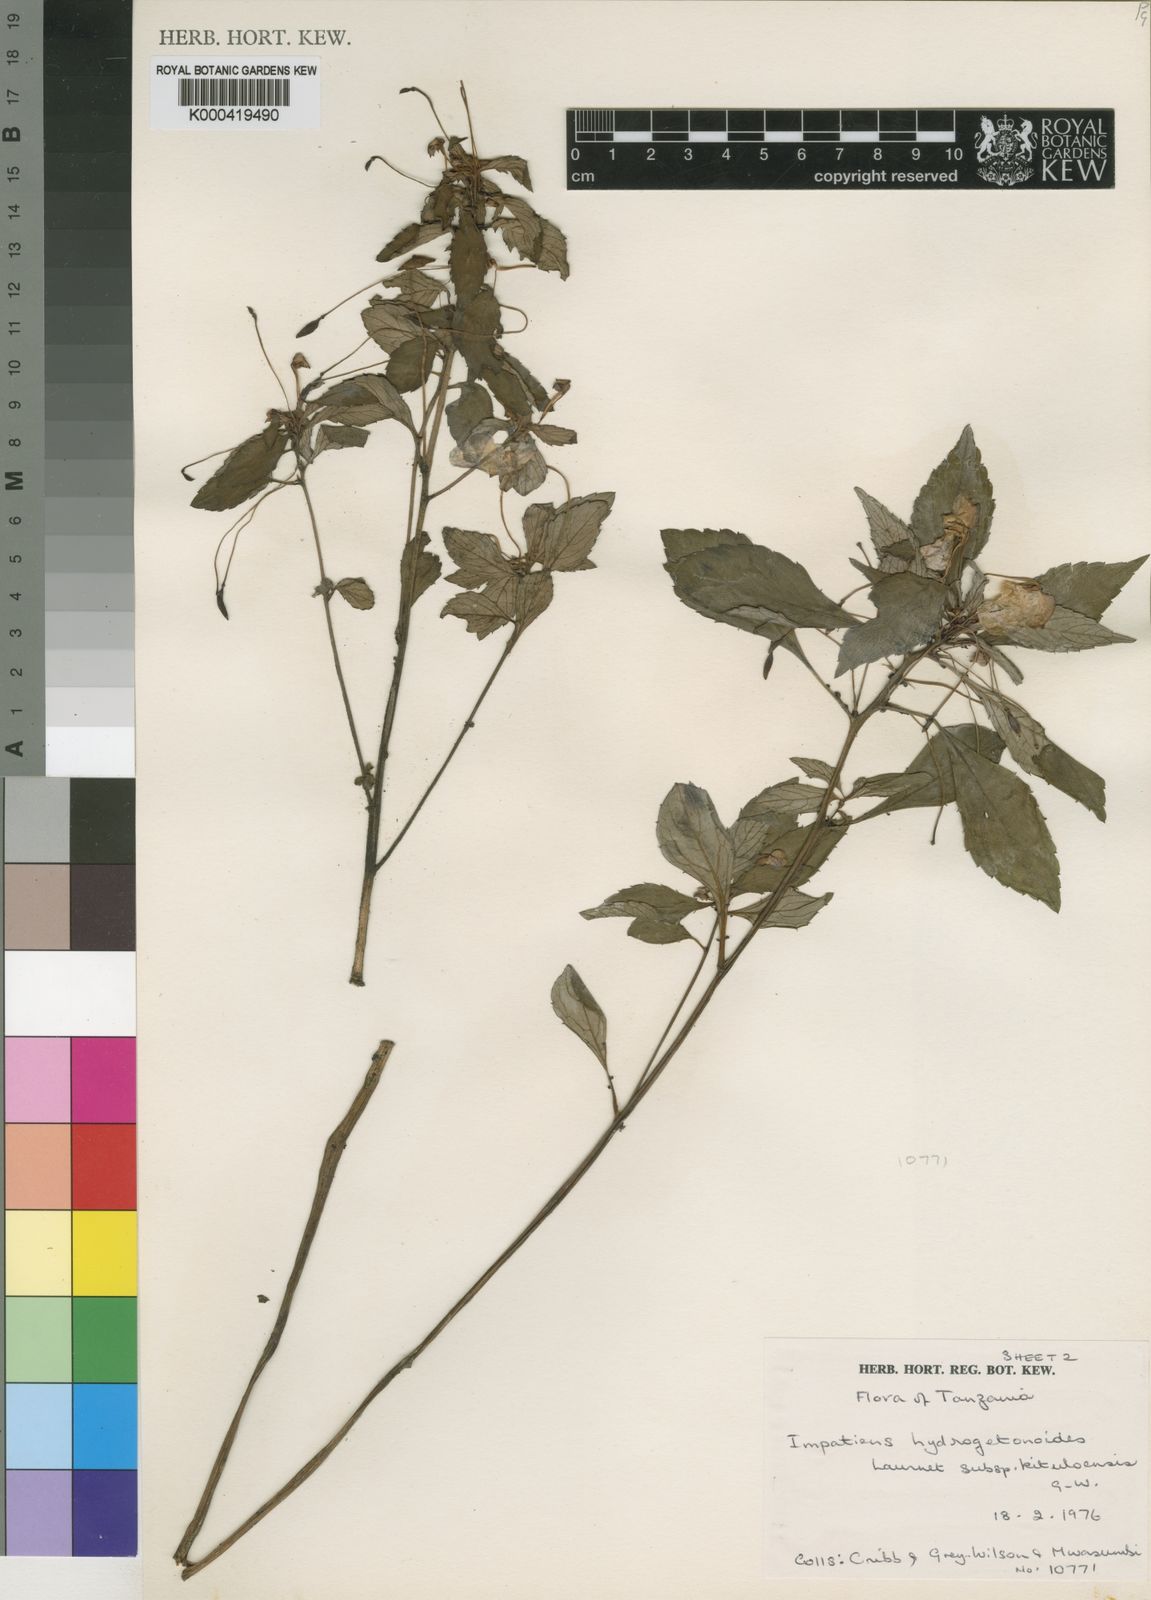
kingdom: Plantae
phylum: Tracheophyta
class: Magnoliopsida
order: Ericales
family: Balsaminaceae
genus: Impatiens
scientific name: Impatiens hydrogetonoides
